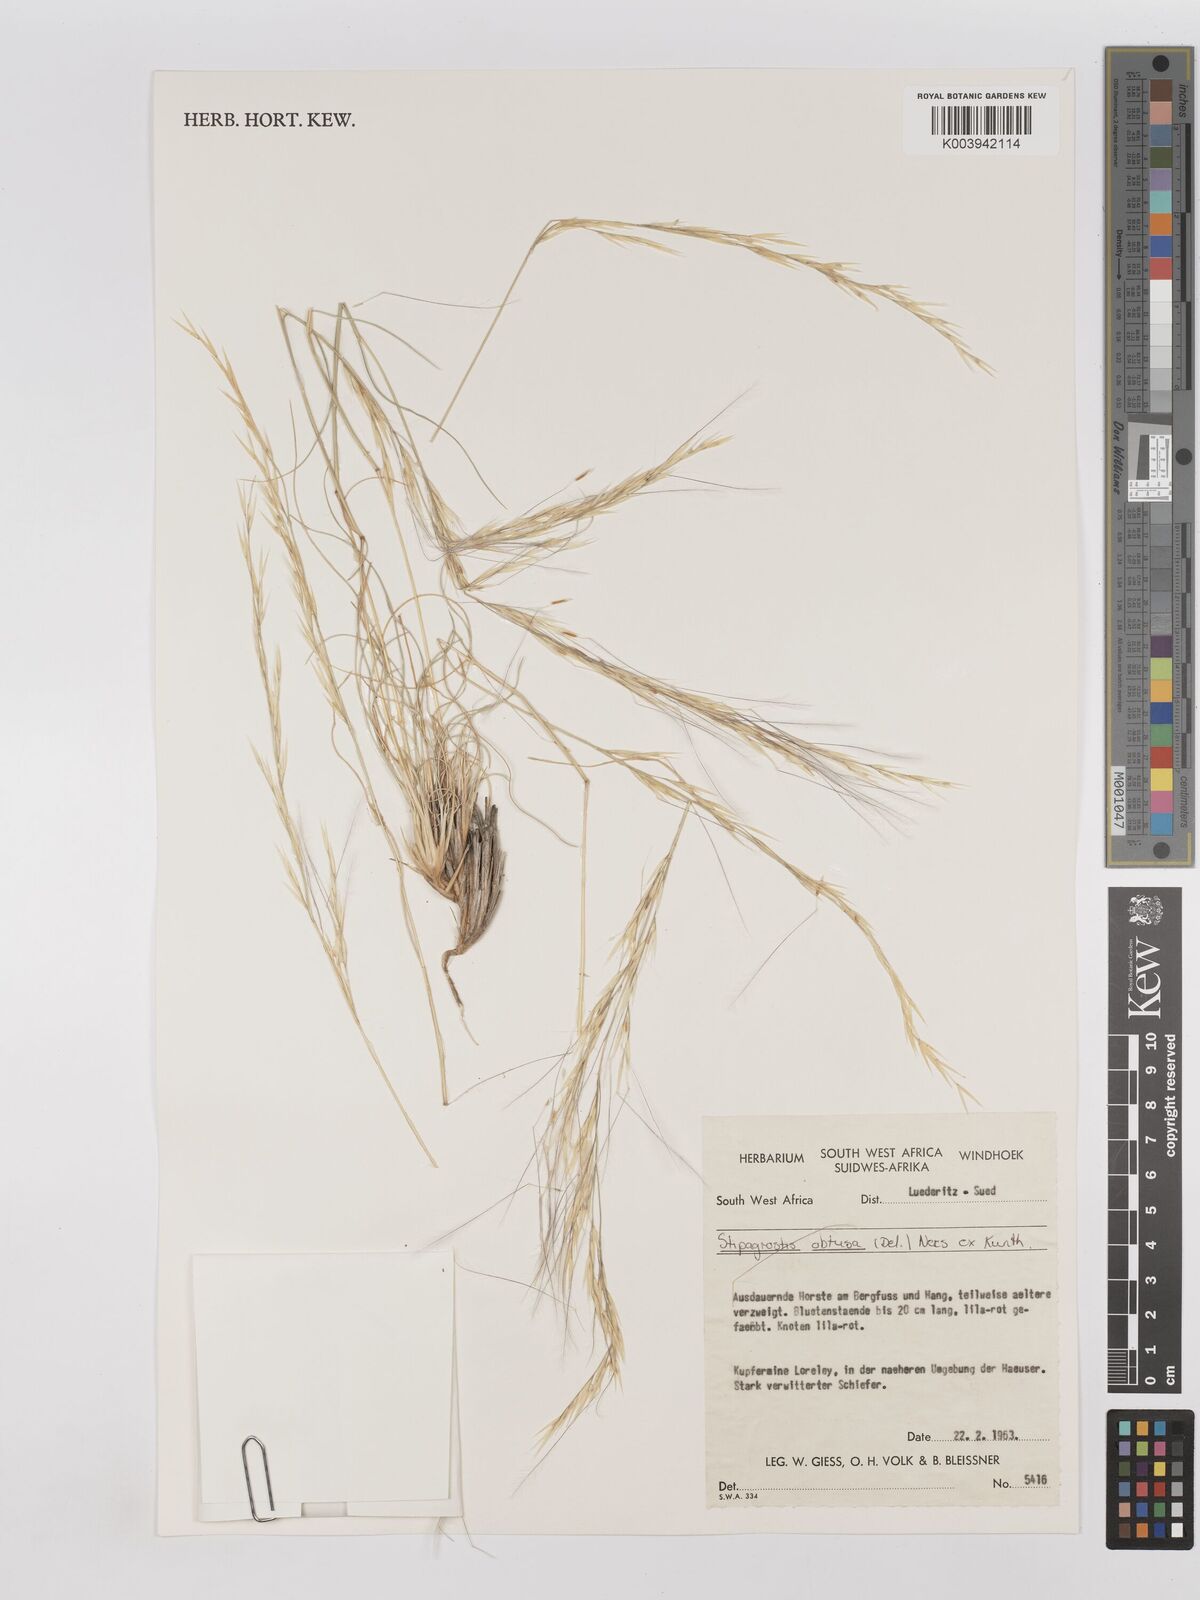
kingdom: Plantae
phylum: Tracheophyta
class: Liliopsida
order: Poales
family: Poaceae
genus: Stipagrostis
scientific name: Stipagrostis obtusa
